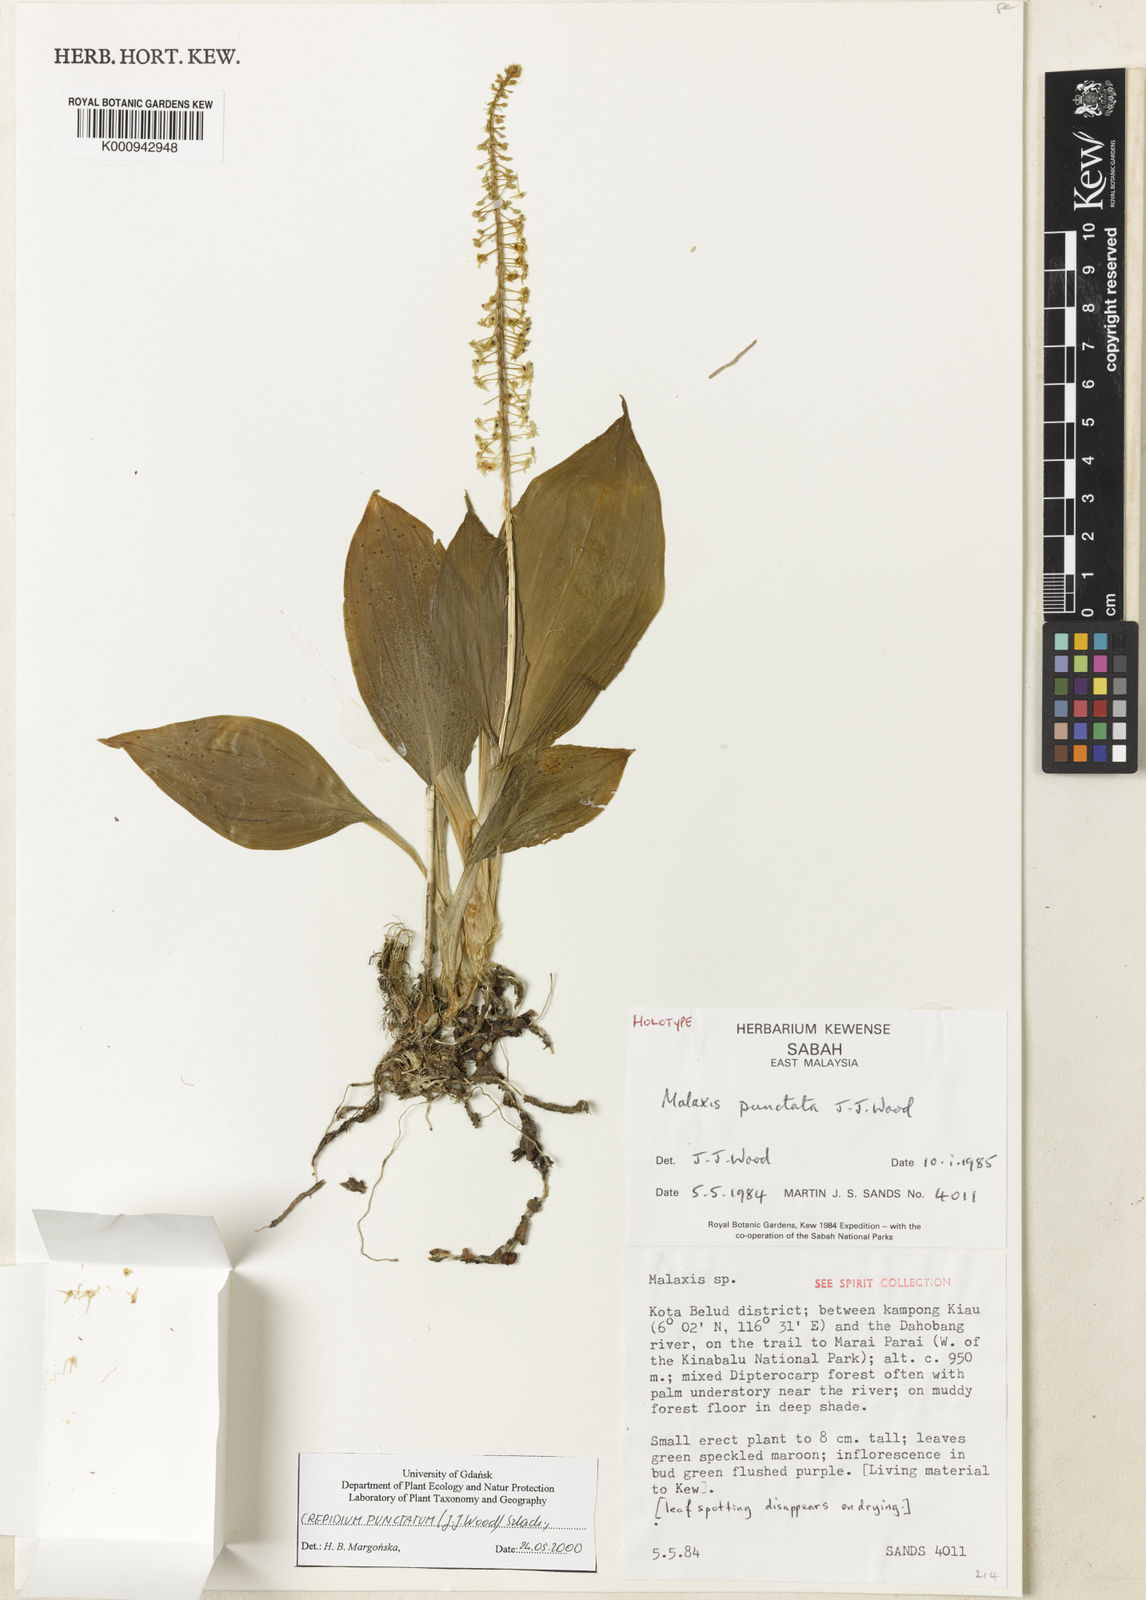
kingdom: Plantae
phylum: Tracheophyta
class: Liliopsida
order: Asparagales
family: Orchidaceae
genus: Crepidium
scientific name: Crepidium punctatum
